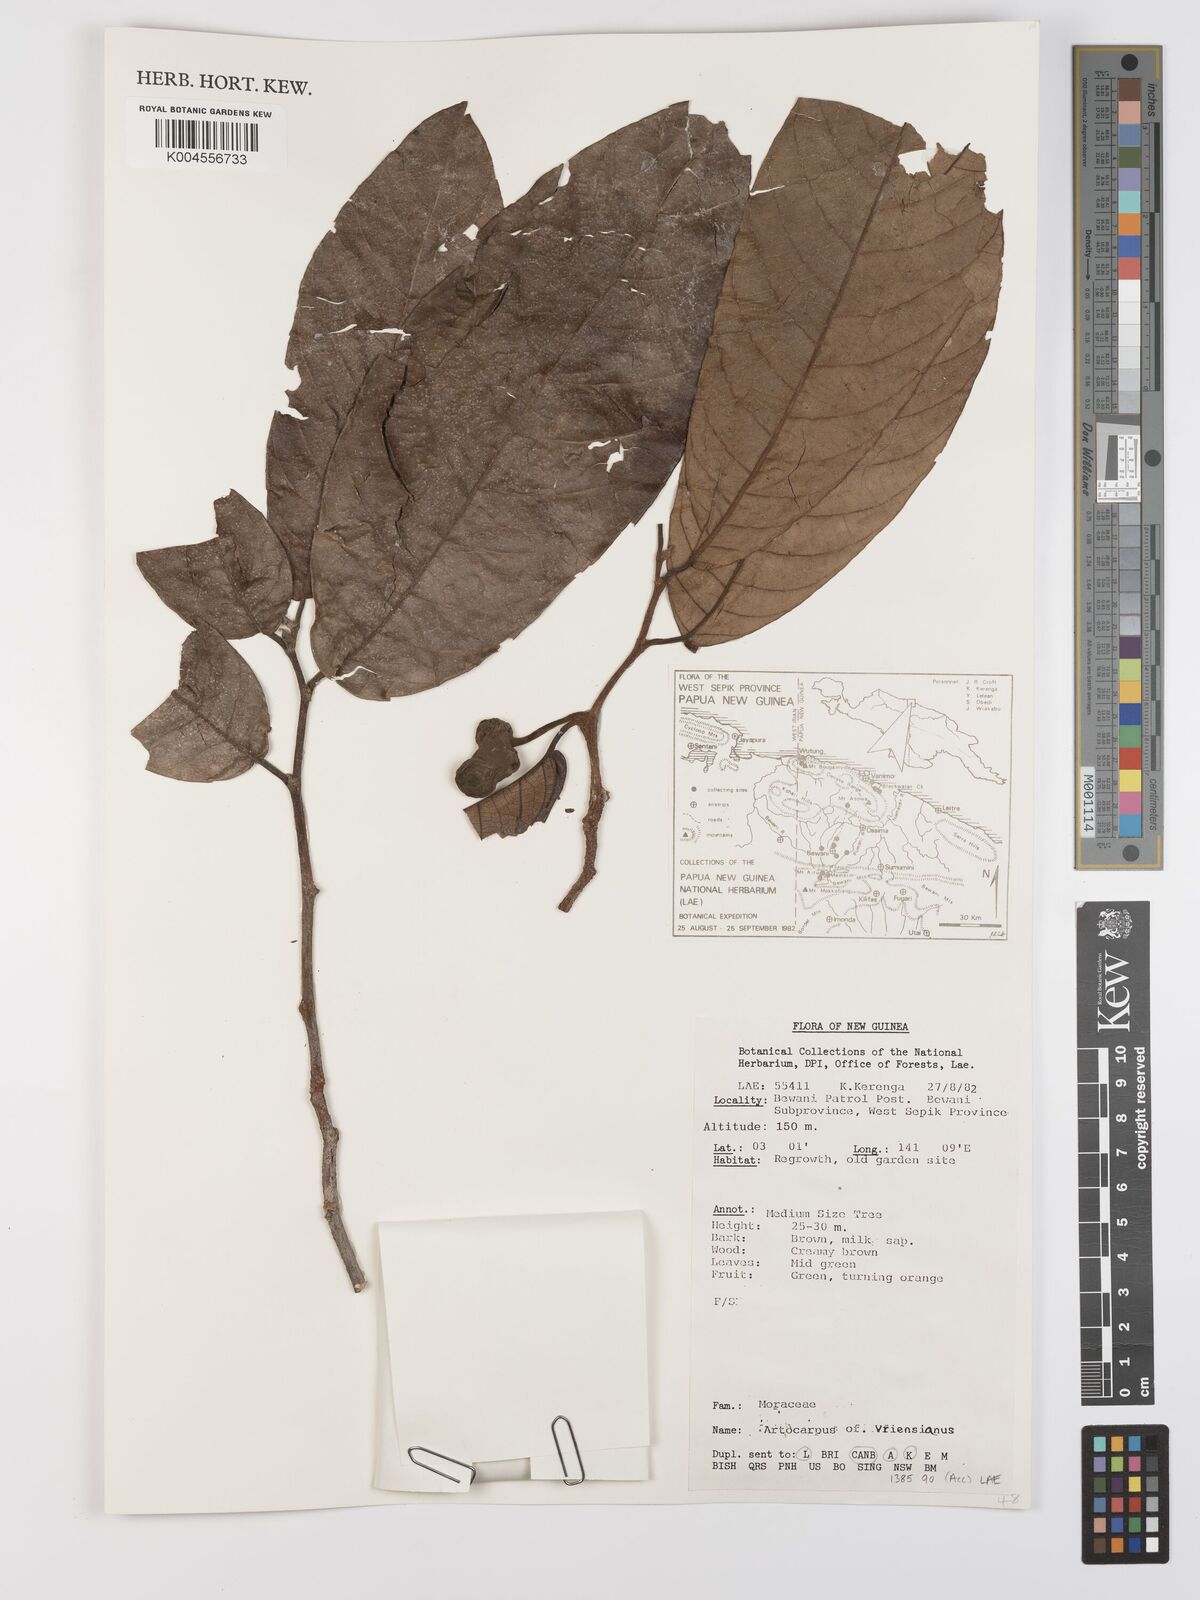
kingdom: Plantae
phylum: Tracheophyta
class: Magnoliopsida
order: Rosales
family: Moraceae
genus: Artocarpus
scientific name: Artocarpus vrieseanus
